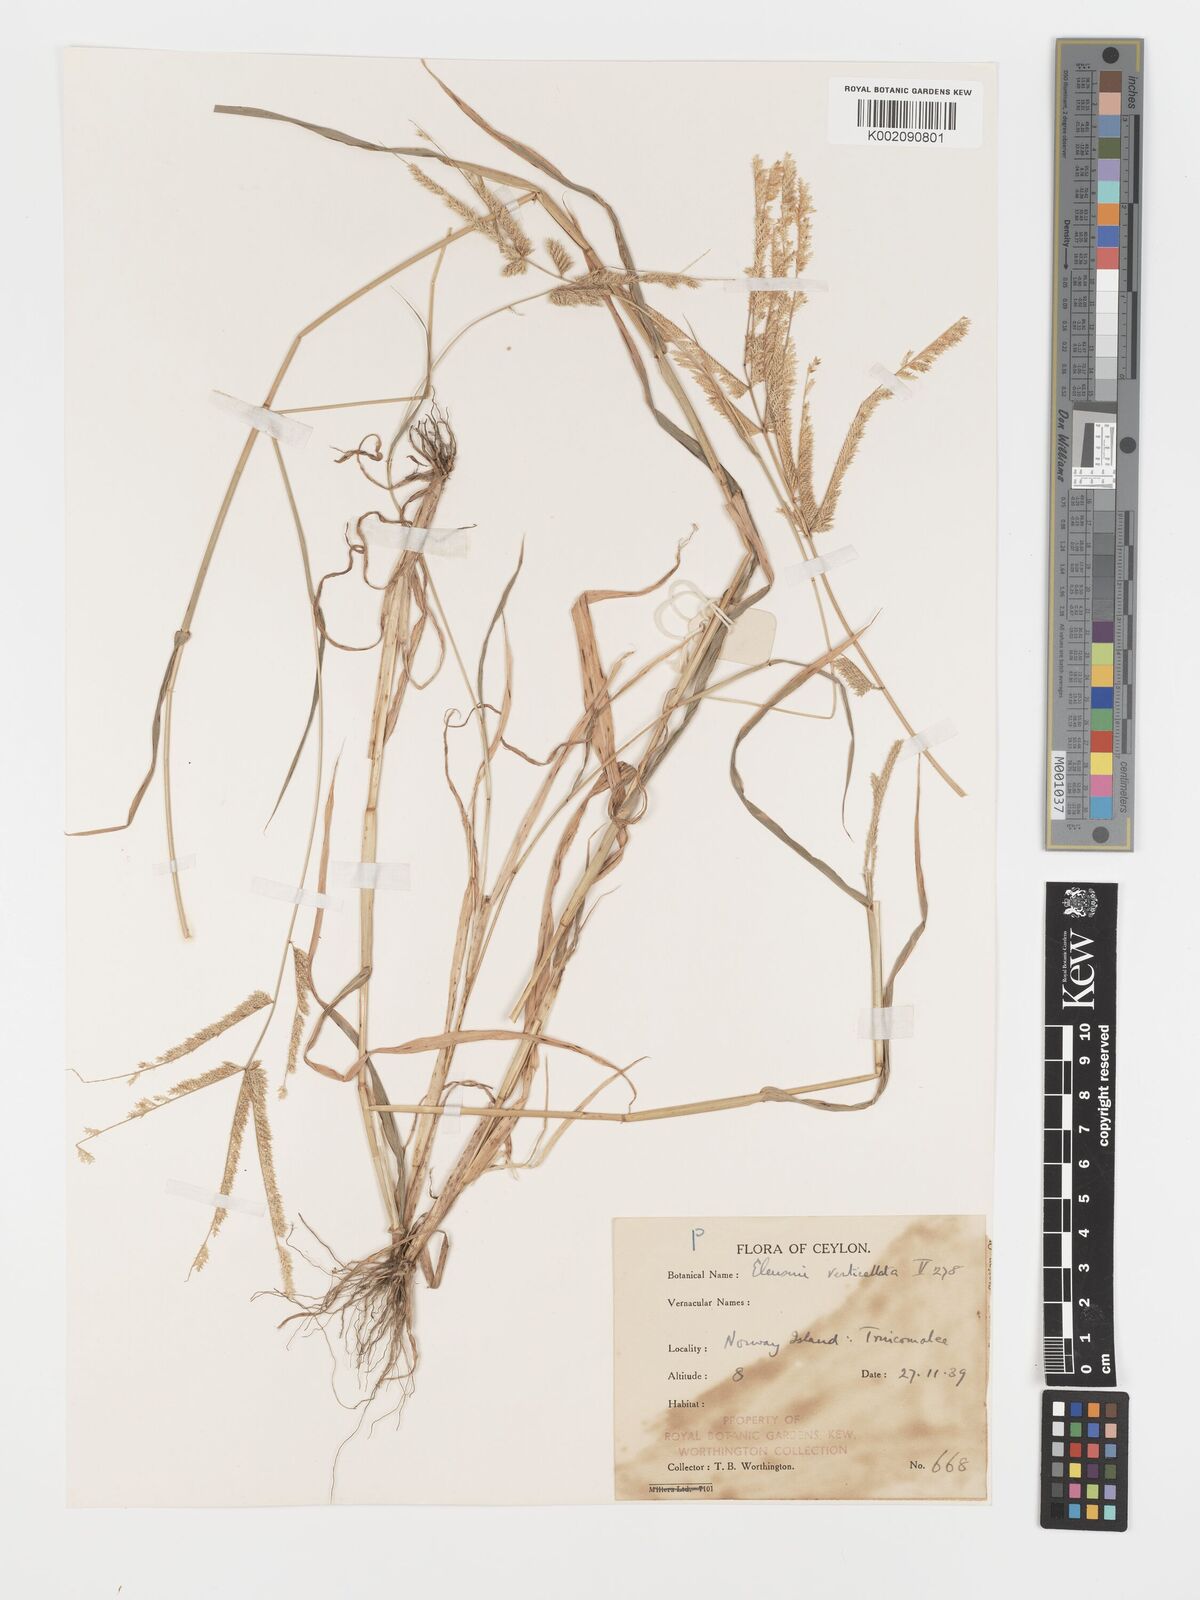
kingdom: Plantae
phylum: Tracheophyta
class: Liliopsida
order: Poales
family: Poaceae
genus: Acrachne
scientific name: Acrachne racemosa
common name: Goosegrass
